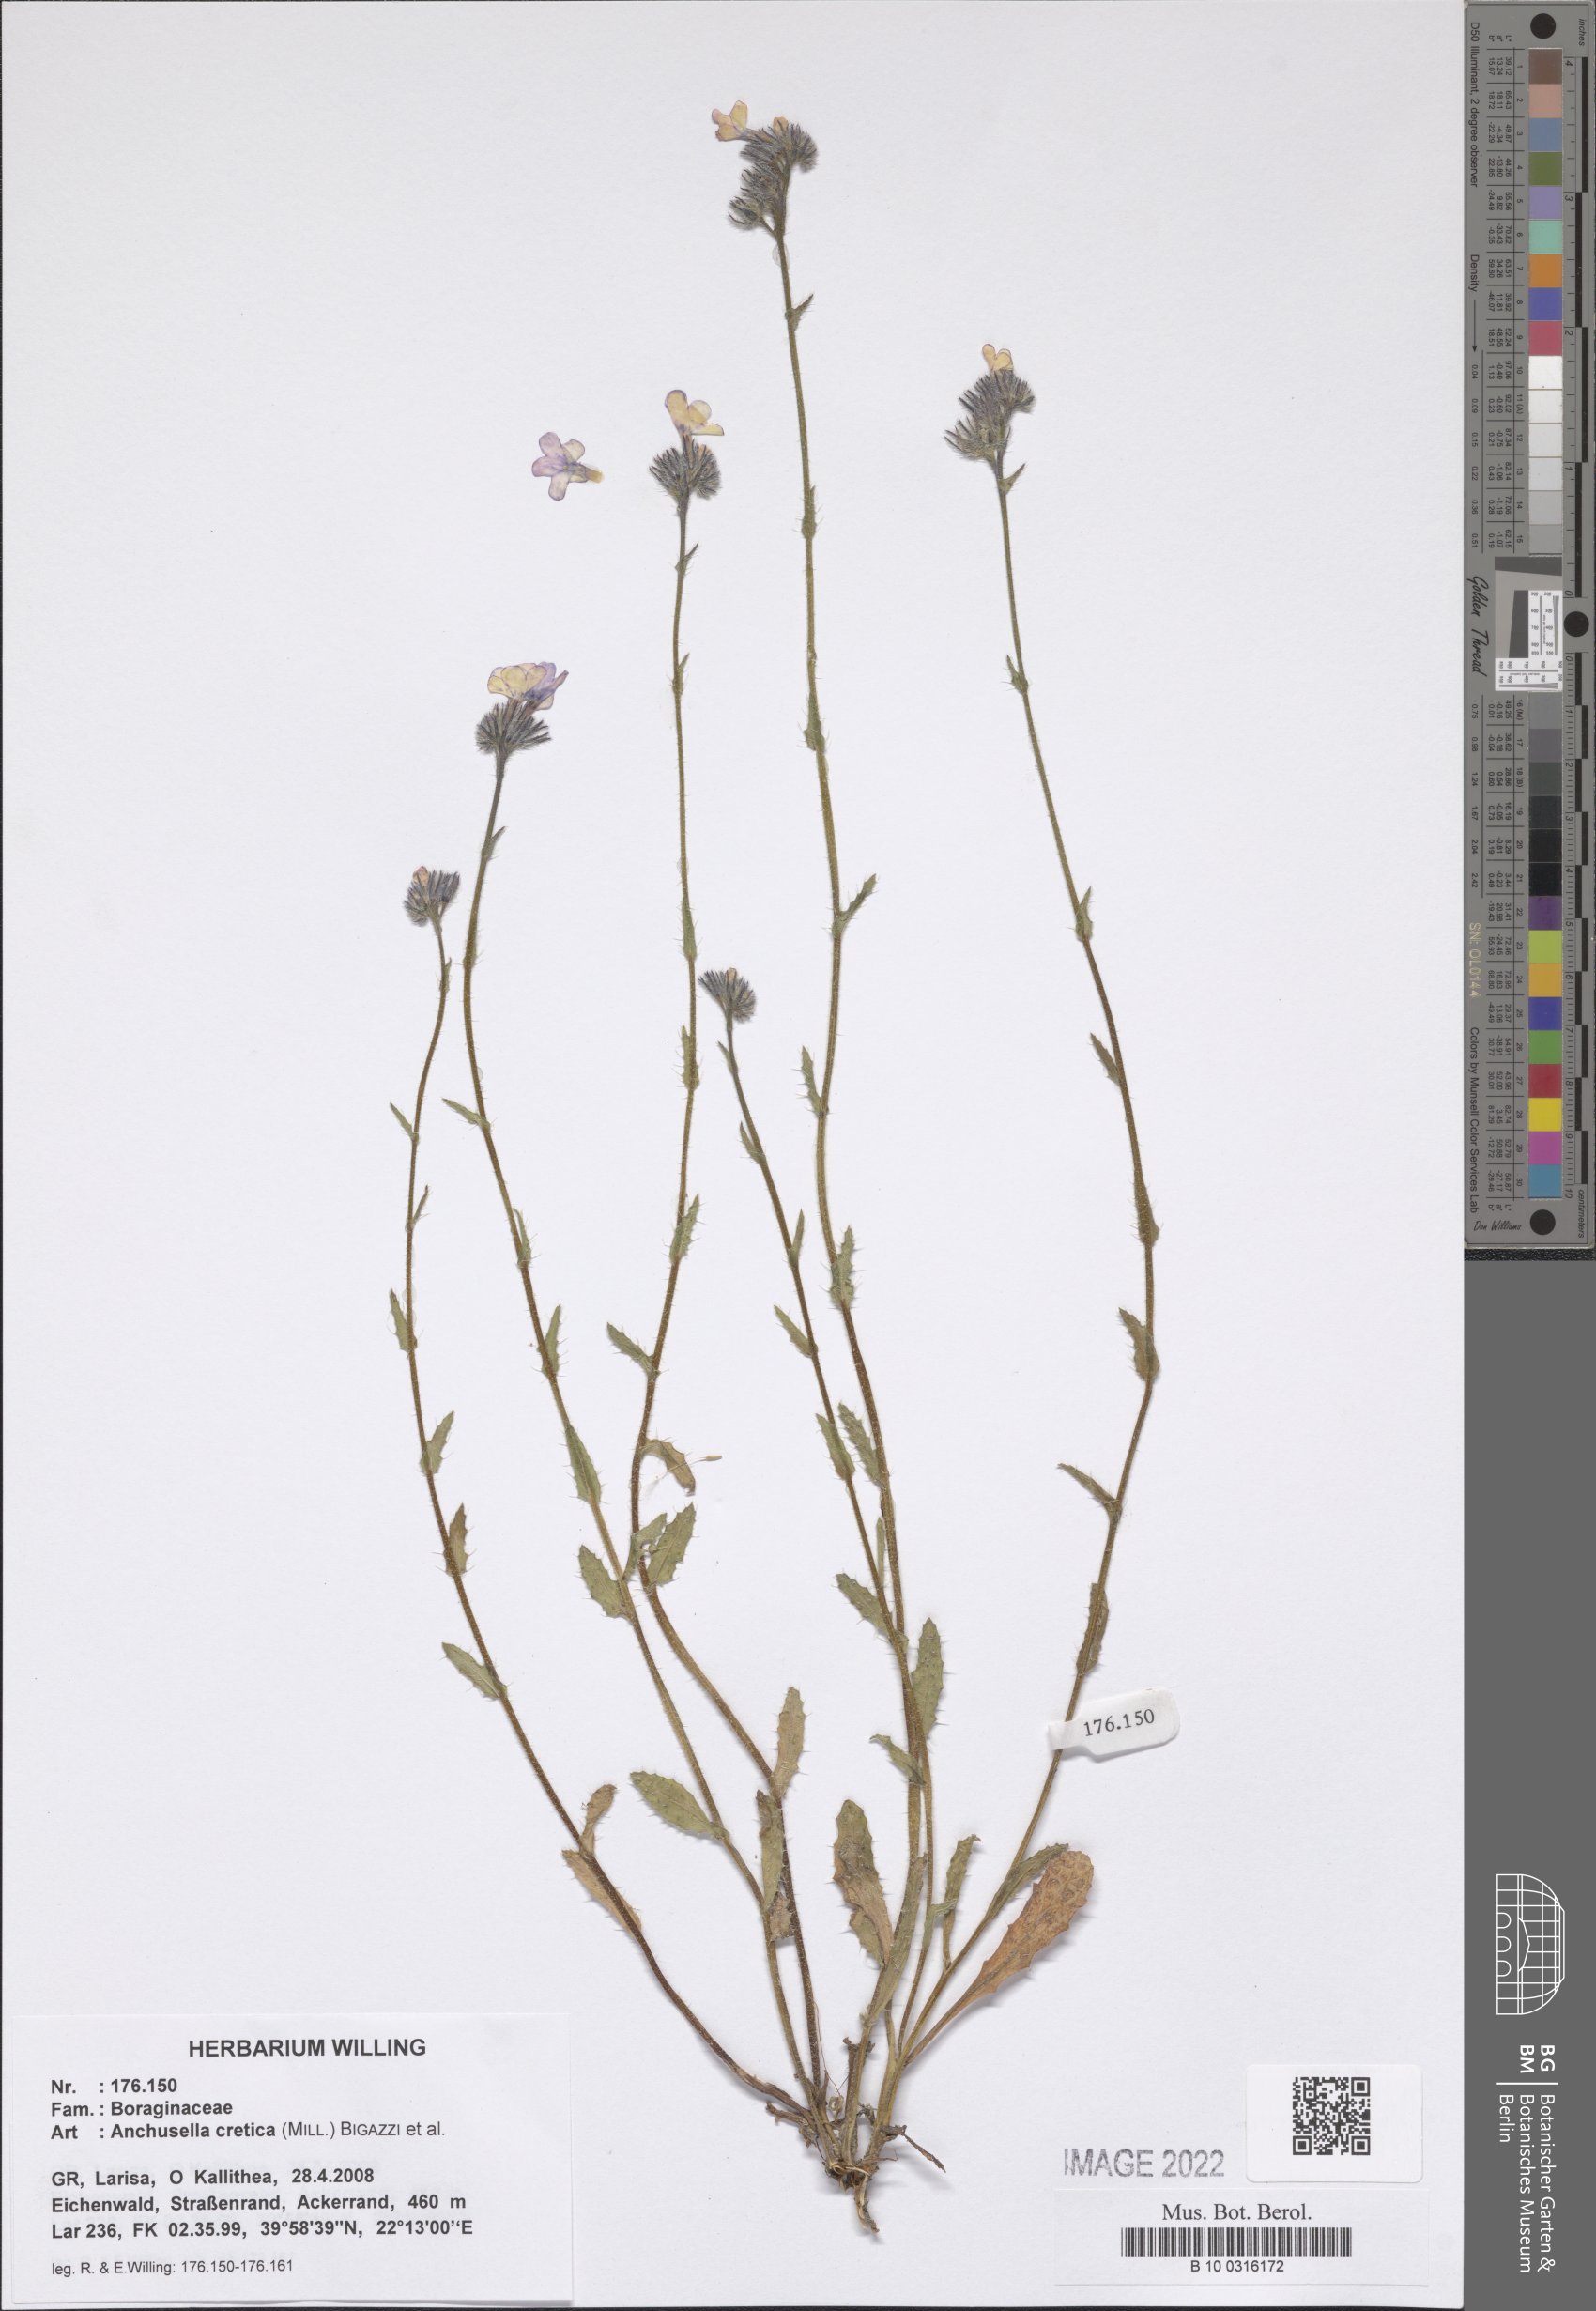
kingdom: Plantae
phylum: Tracheophyta
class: Magnoliopsida
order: Boraginales
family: Boraginaceae
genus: Anchusella
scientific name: Anchusella cretica
